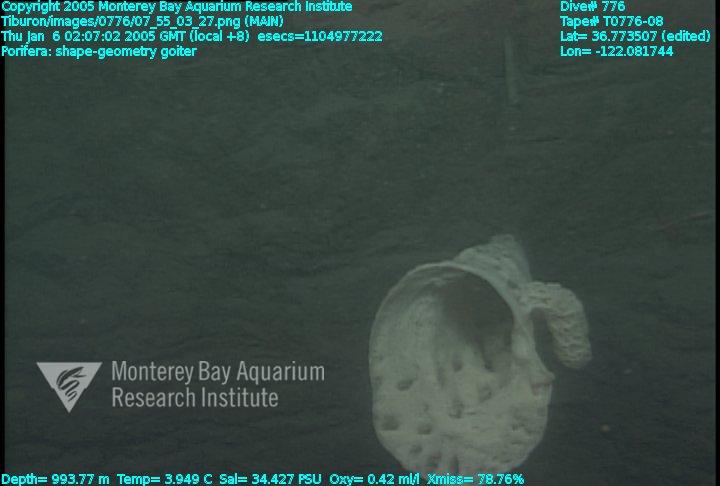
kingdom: Animalia
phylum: Porifera
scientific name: Porifera
